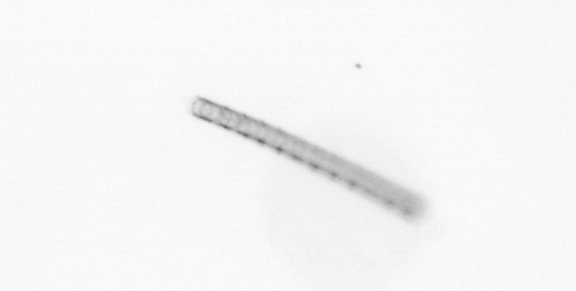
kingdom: Chromista
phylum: Ochrophyta
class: Bacillariophyceae
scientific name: Bacillariophyceae
